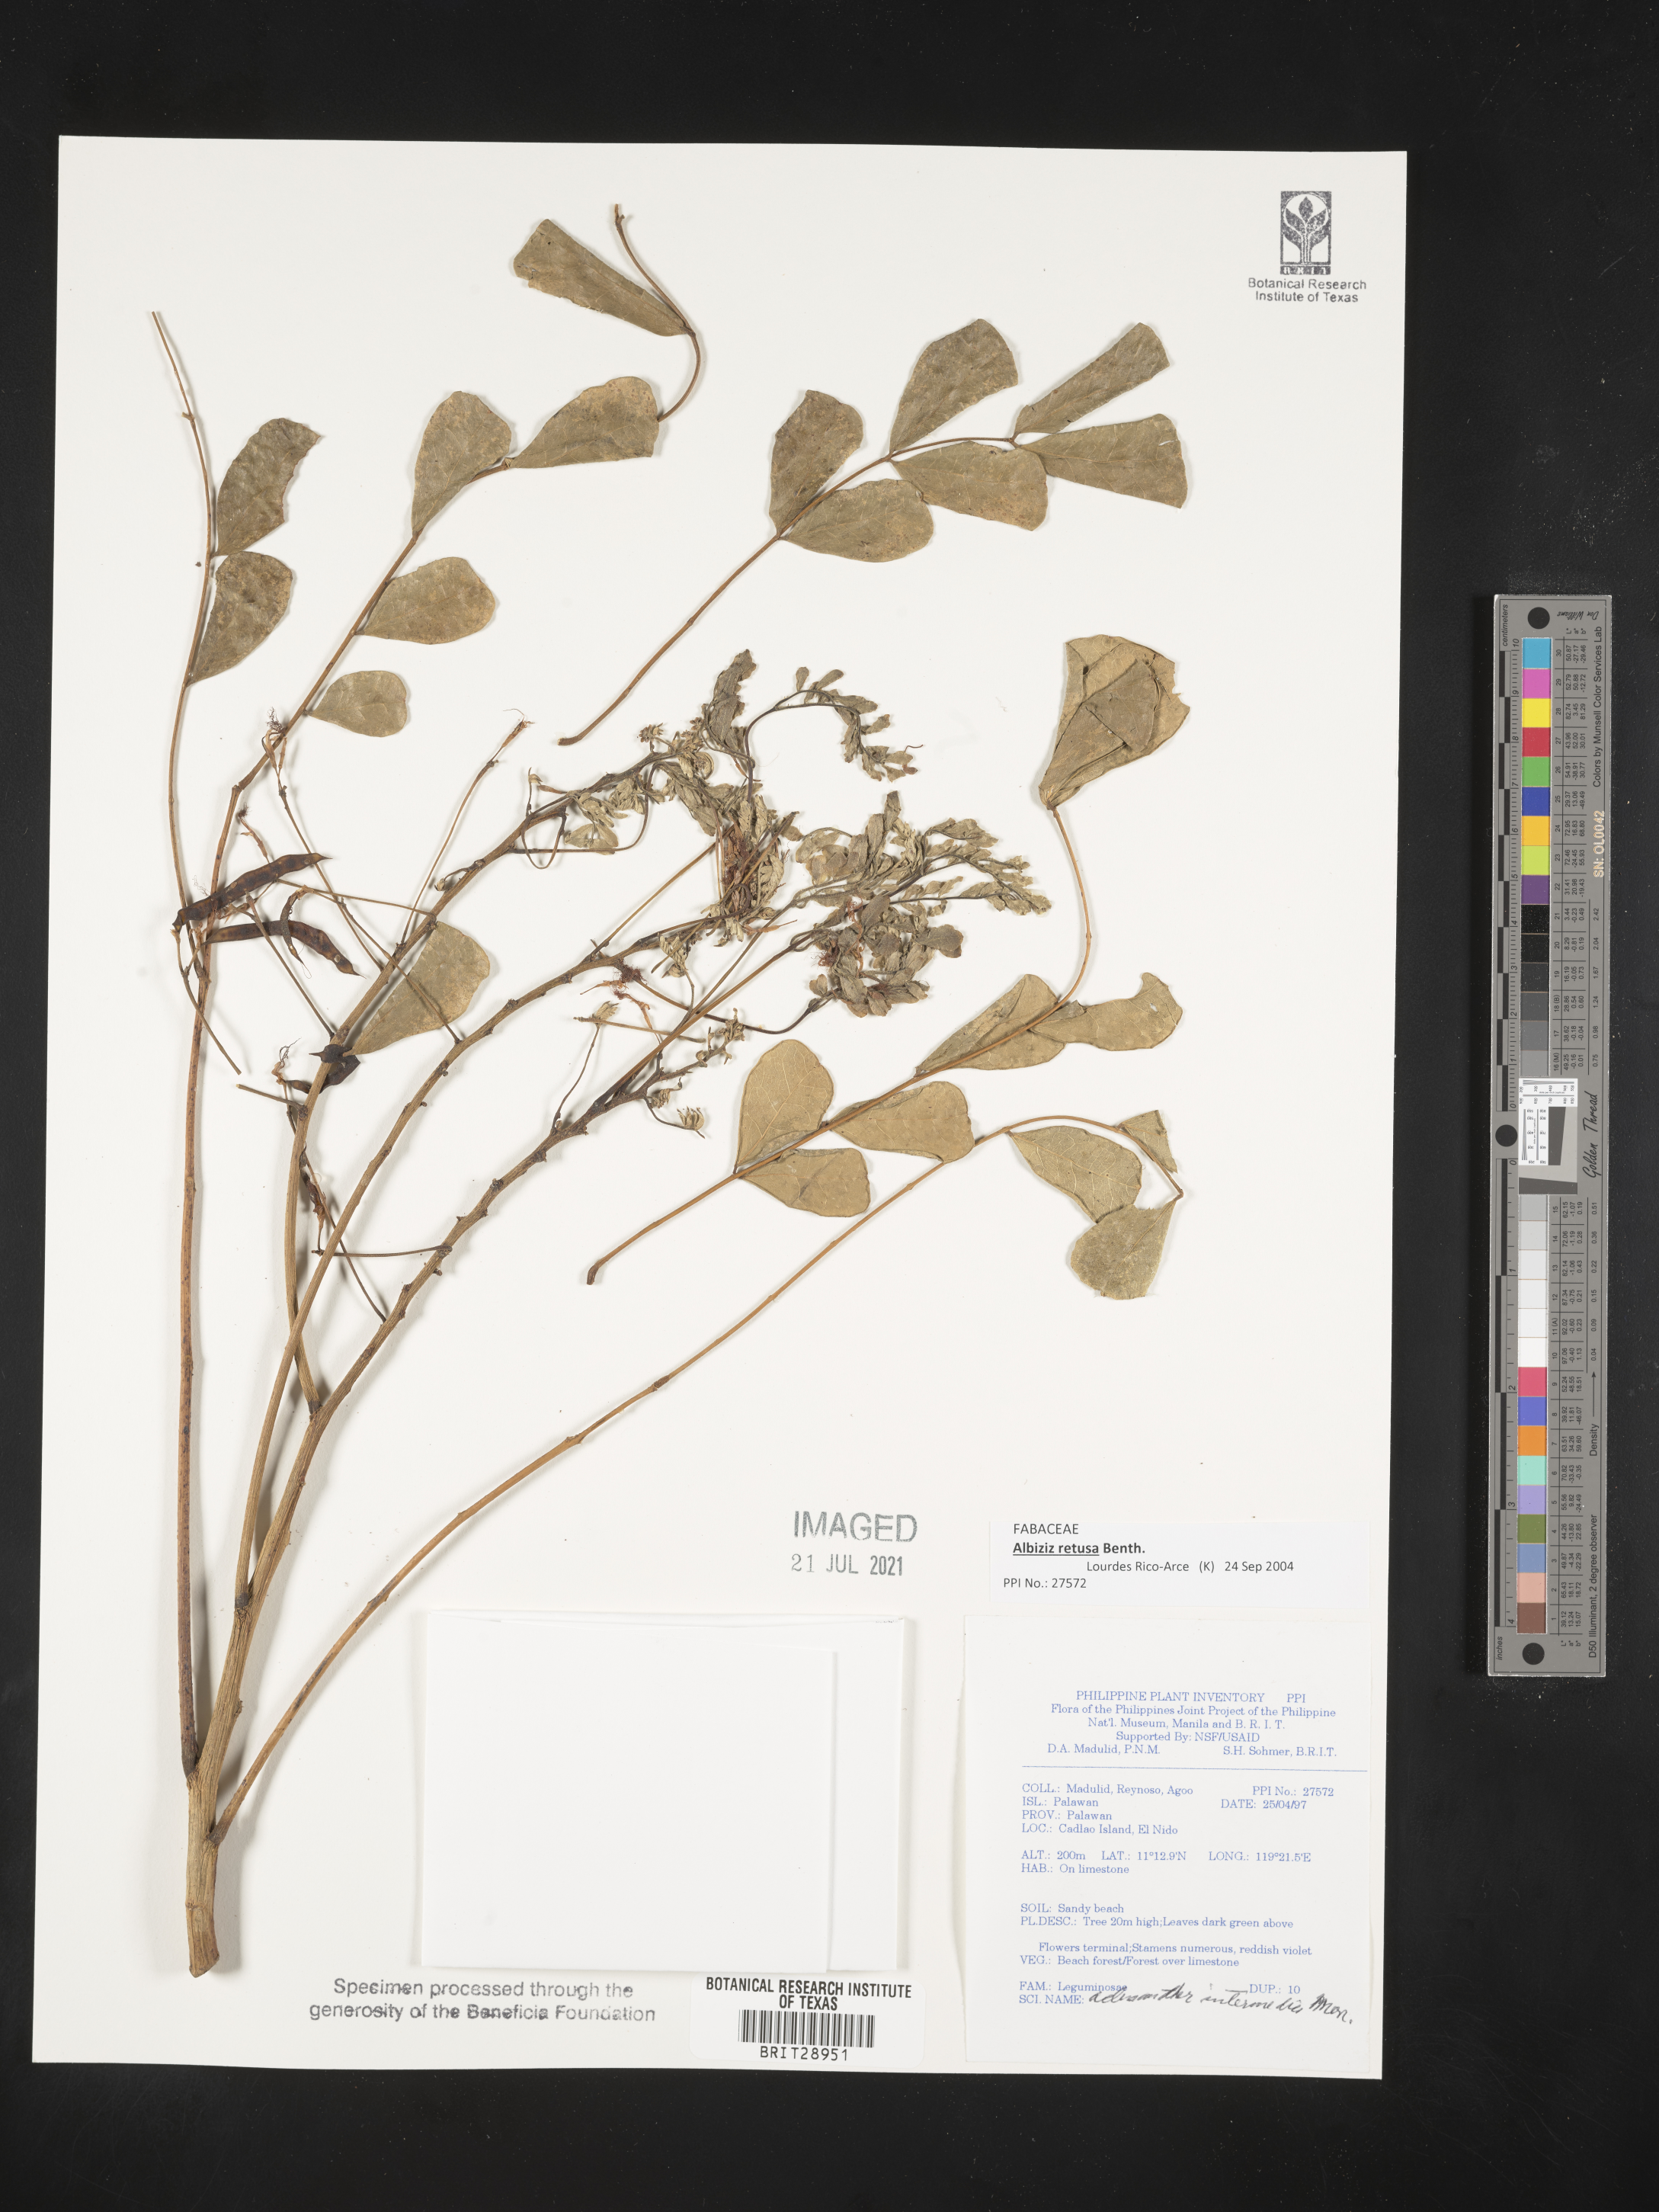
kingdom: Plantae
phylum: Tracheophyta
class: Magnoliopsida
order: Fabales
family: Fabaceae
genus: Albizia
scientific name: Albizia retusa
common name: Sea albizia
